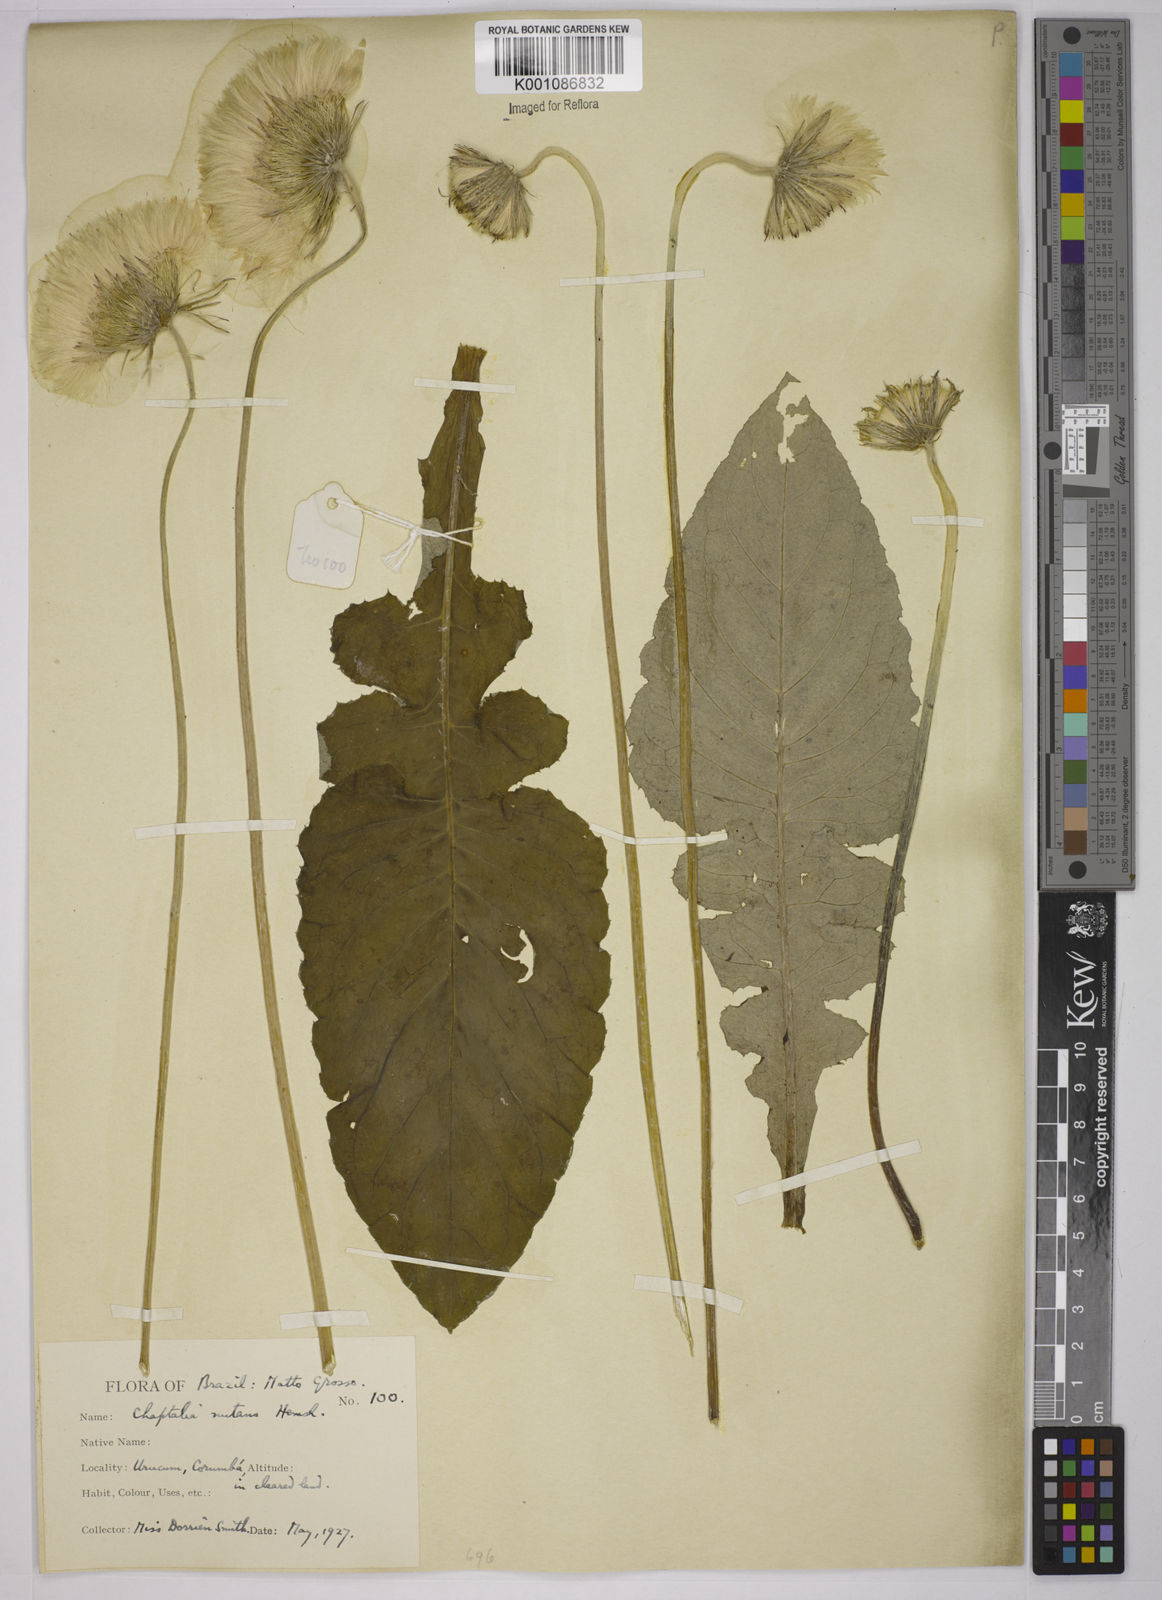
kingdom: Plantae
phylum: Tracheophyta
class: Magnoliopsida
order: Asterales
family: Asteraceae
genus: Chaptalia
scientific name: Chaptalia nutans
